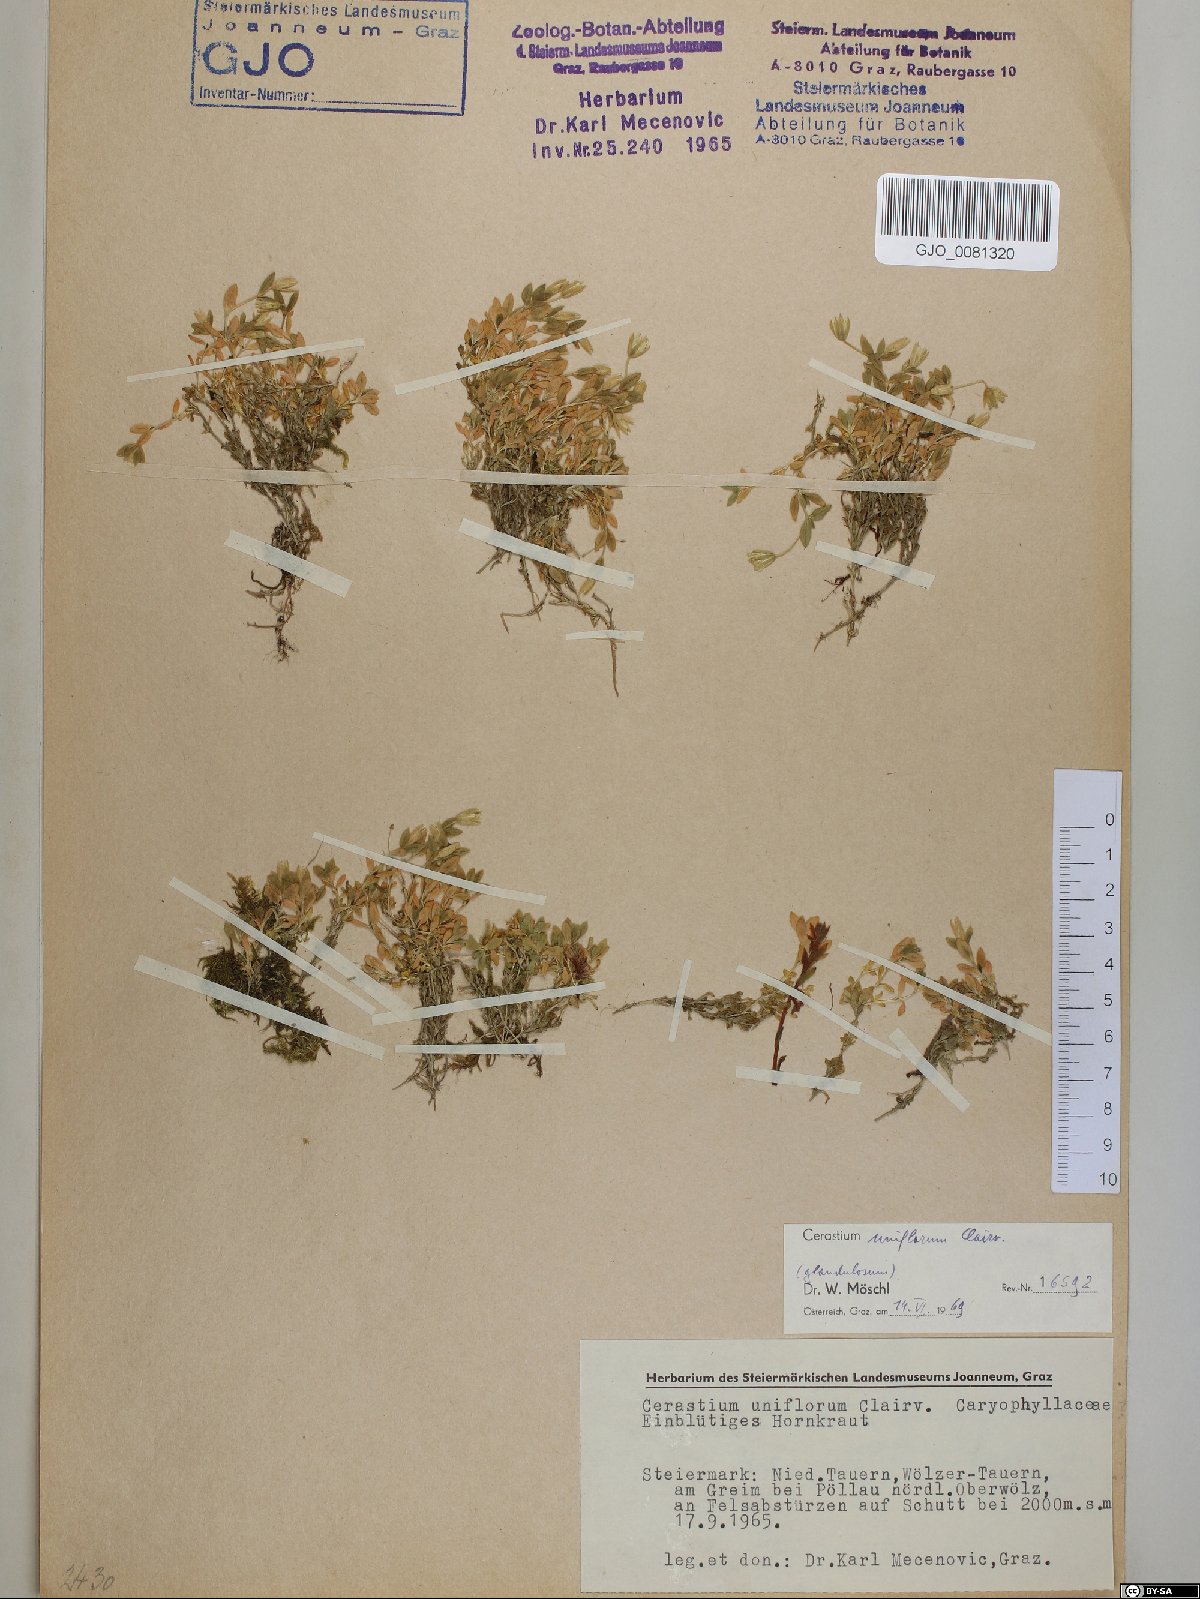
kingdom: Plantae
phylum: Tracheophyta
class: Magnoliopsida
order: Caryophyllales
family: Caryophyllaceae
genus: Cerastium
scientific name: Cerastium uniflorum
